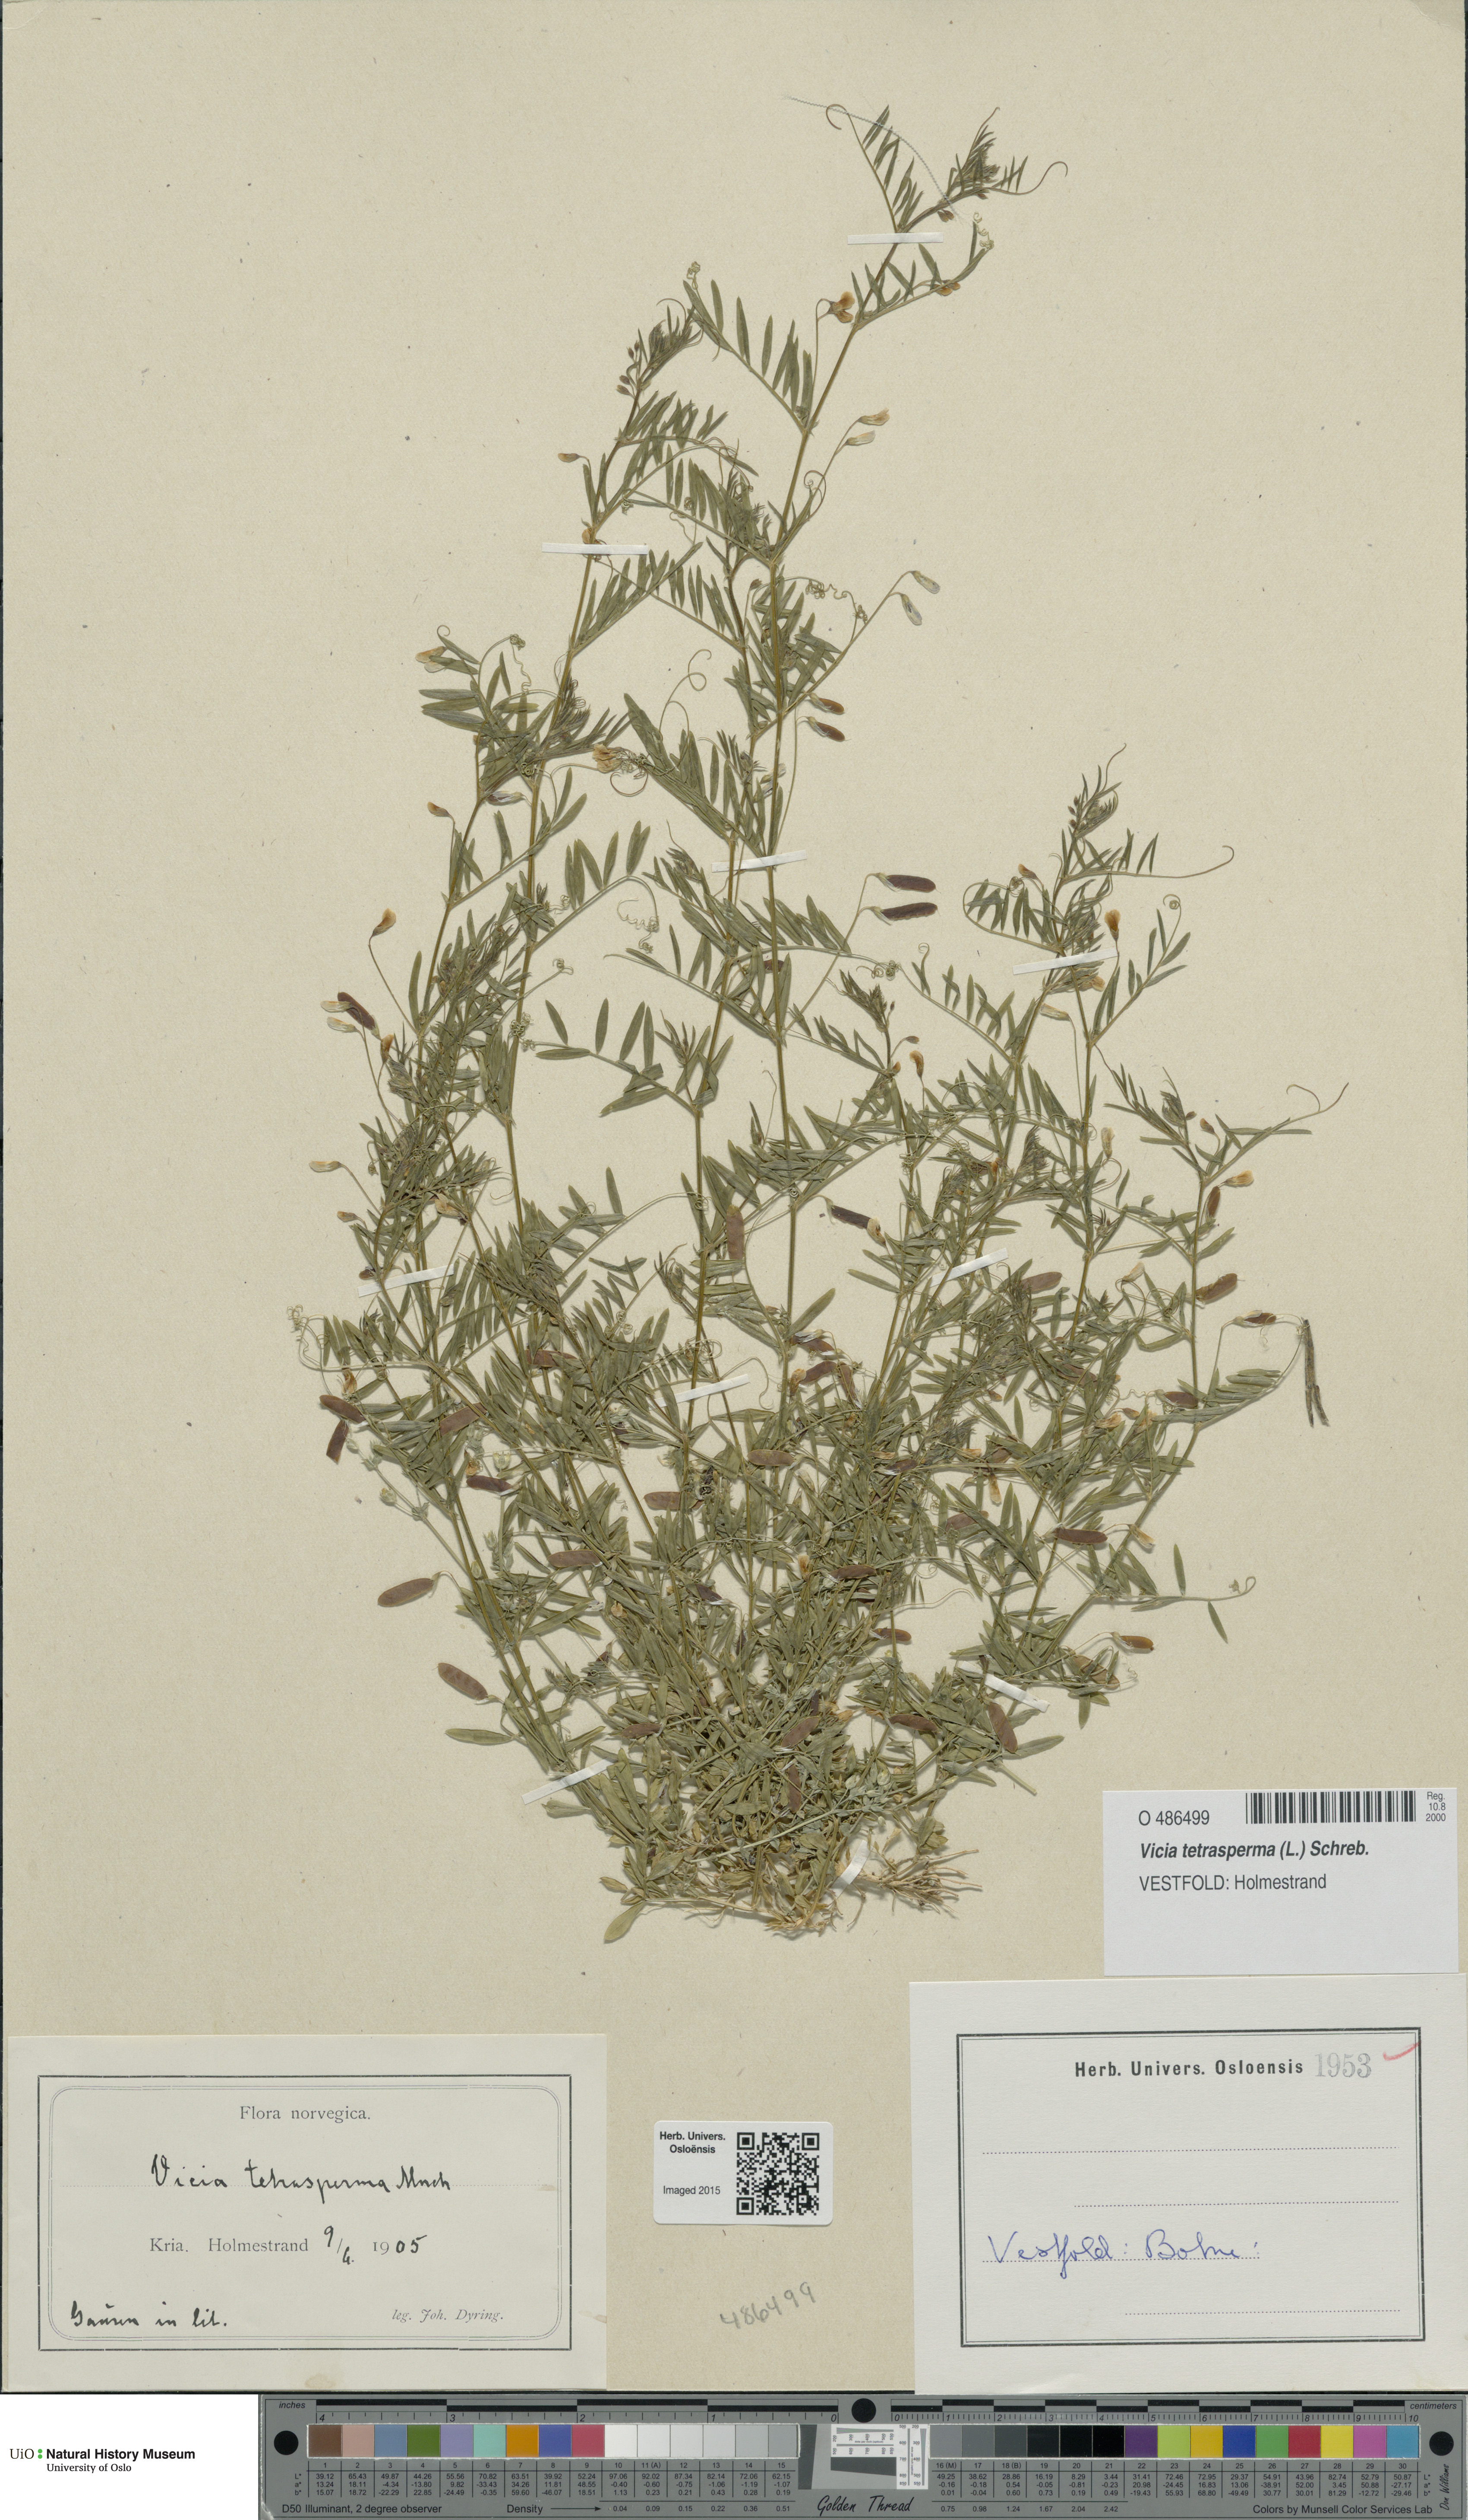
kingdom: Plantae
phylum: Tracheophyta
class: Magnoliopsida
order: Fabales
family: Fabaceae
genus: Vicia
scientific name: Vicia tetrasperma
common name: Smooth tare
